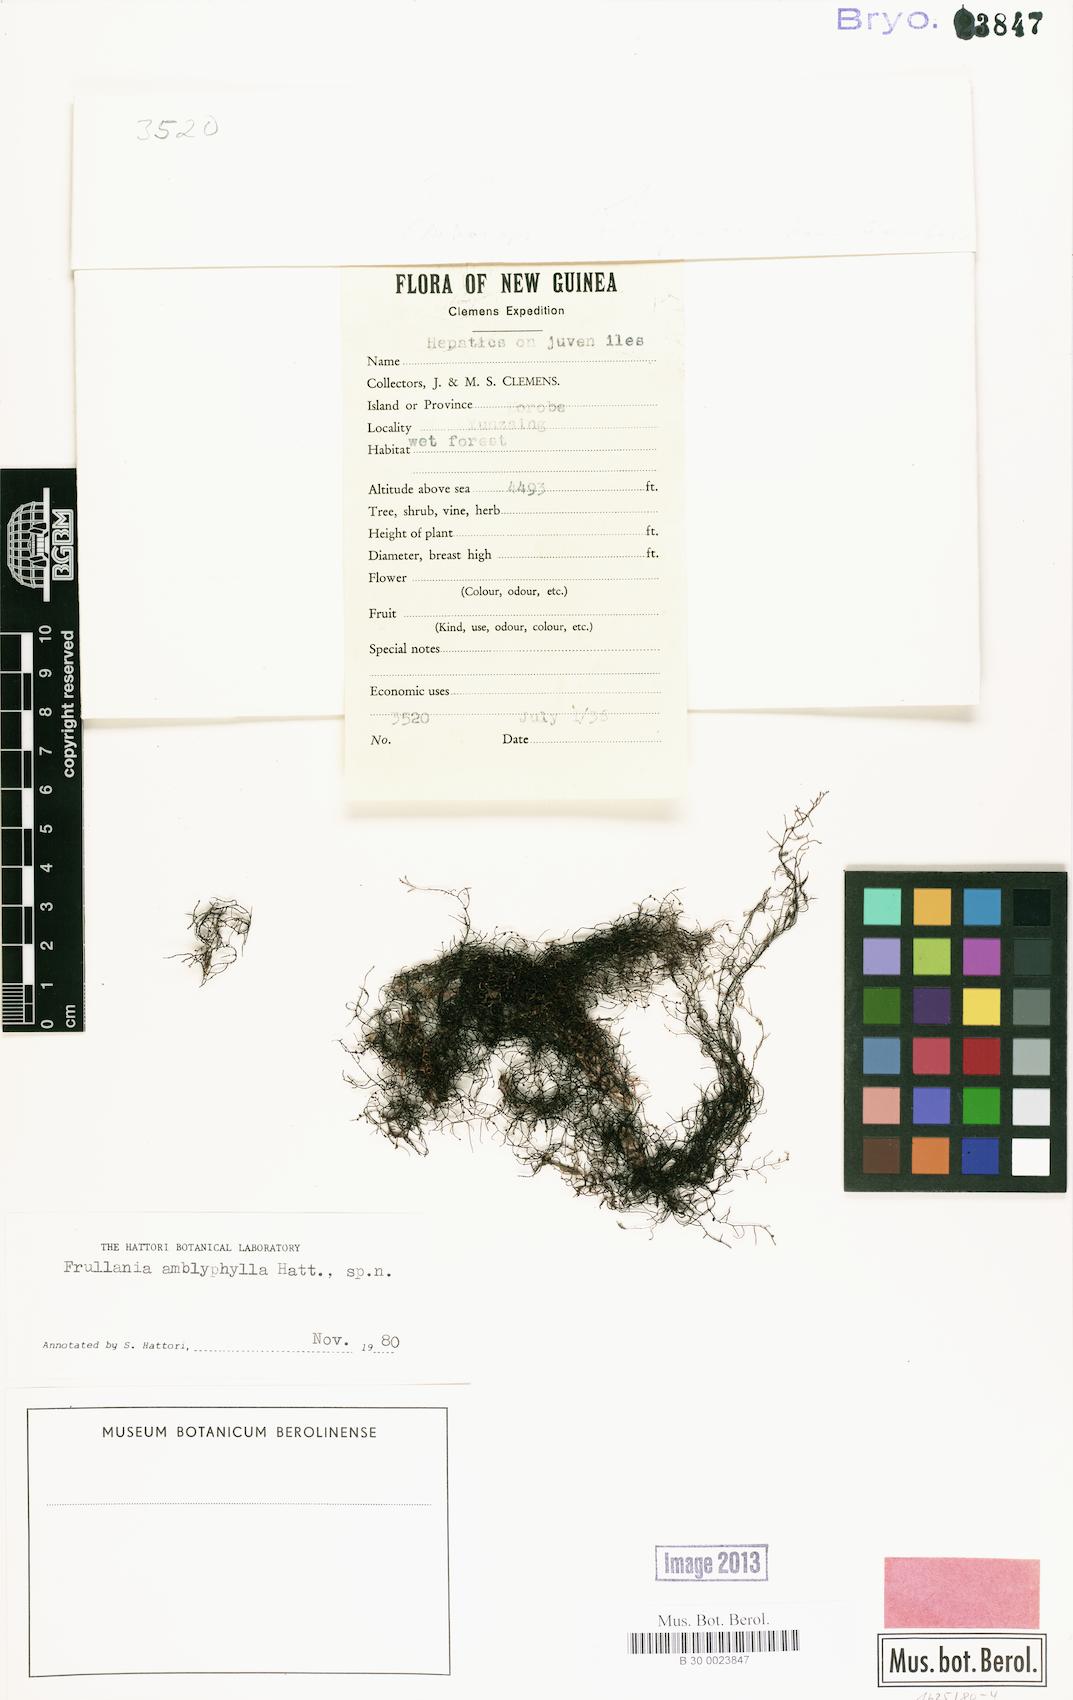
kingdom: Plantae
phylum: Marchantiophyta
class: Jungermanniopsida
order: Porellales
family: Frullaniaceae
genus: Frullania
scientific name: Frullania
